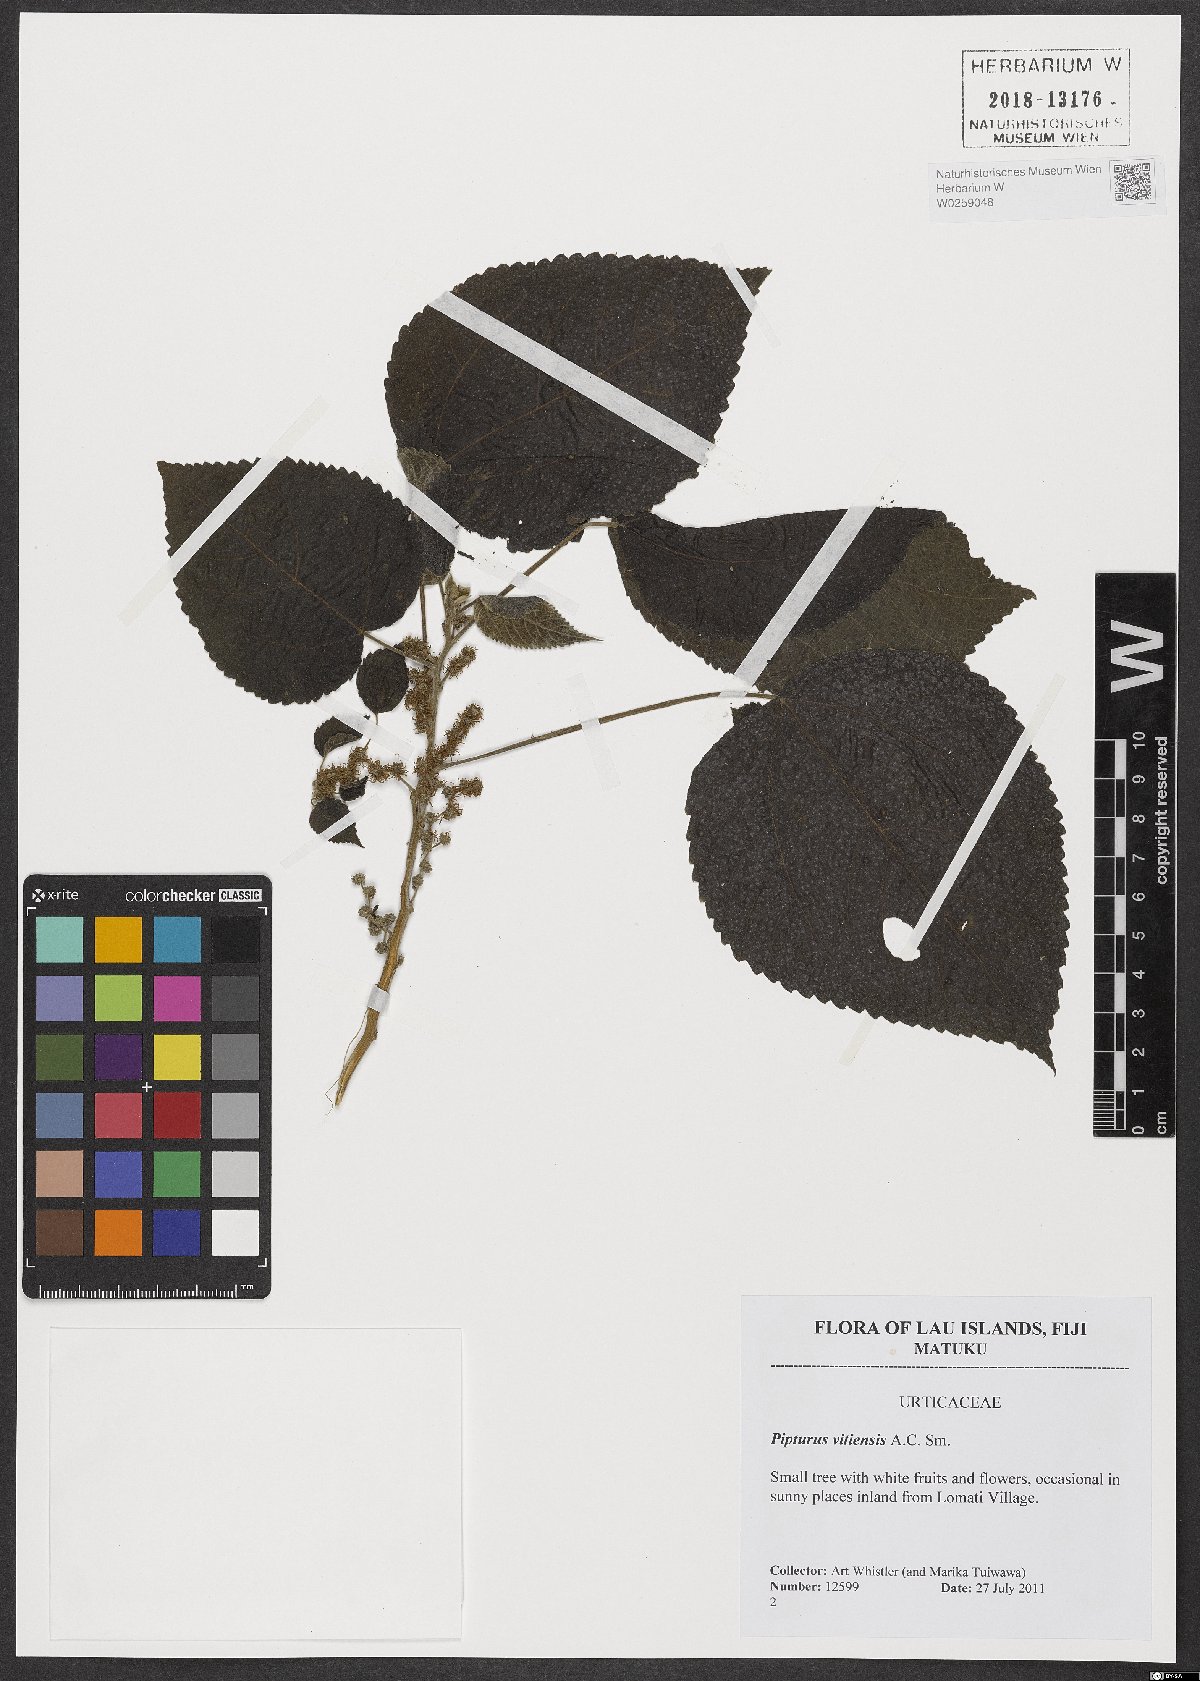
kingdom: Plantae
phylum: Tracheophyta
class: Magnoliopsida
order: Rosales
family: Urticaceae
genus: Pipturus
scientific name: Pipturus vitiensis
